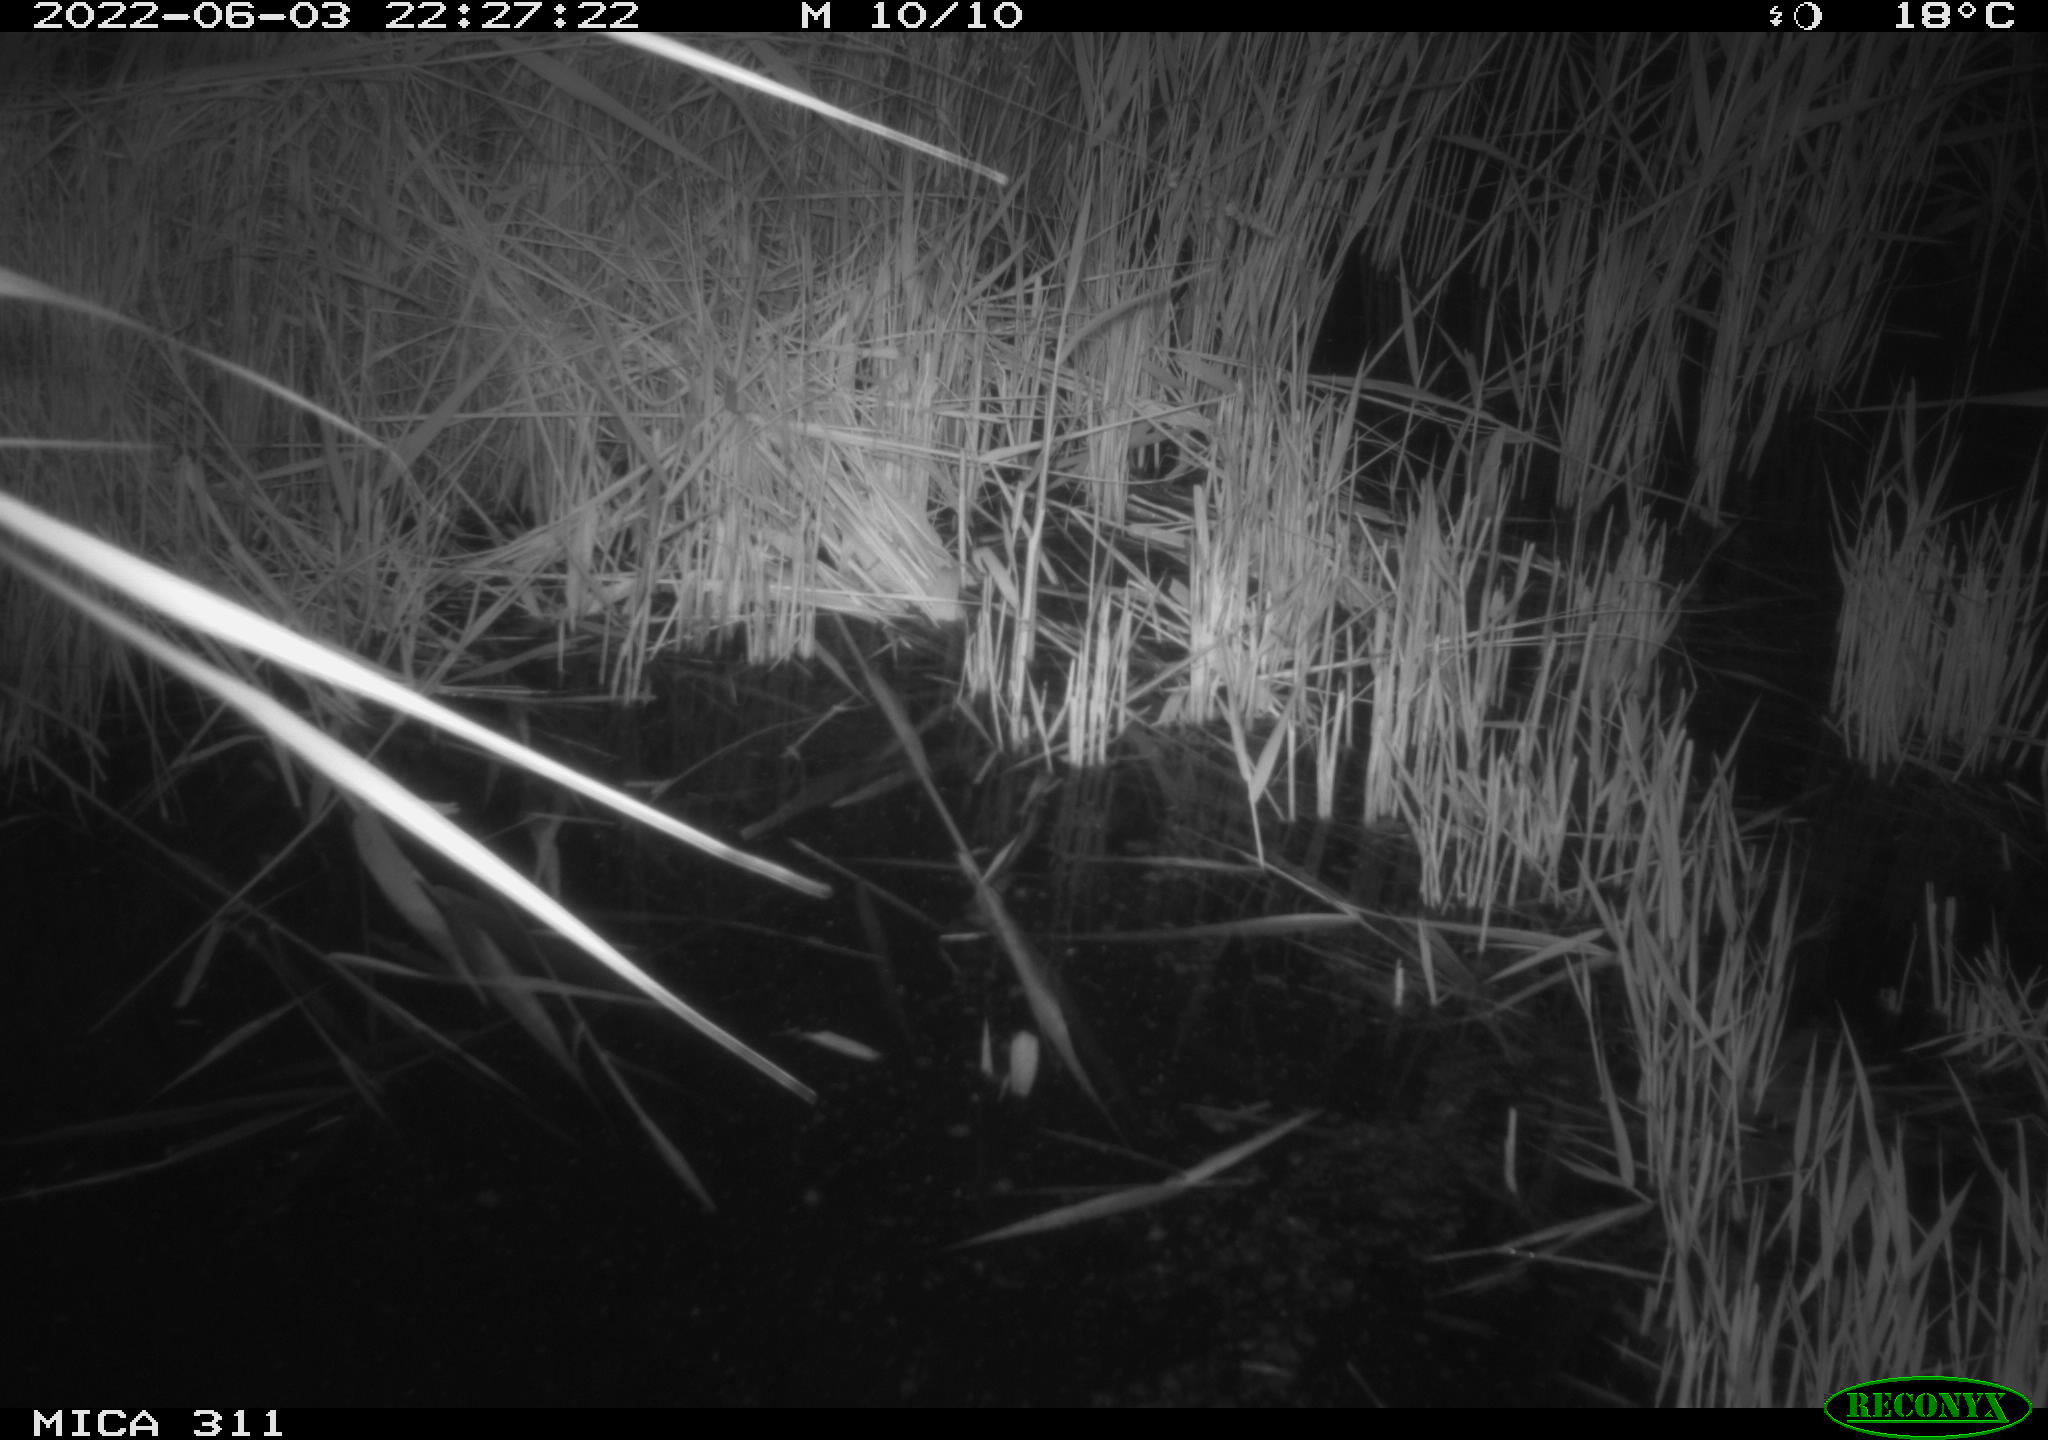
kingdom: Animalia
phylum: Chordata
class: Aves
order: Gruiformes
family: Rallidae
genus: Gallinula
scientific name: Gallinula chloropus
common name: Common moorhen
